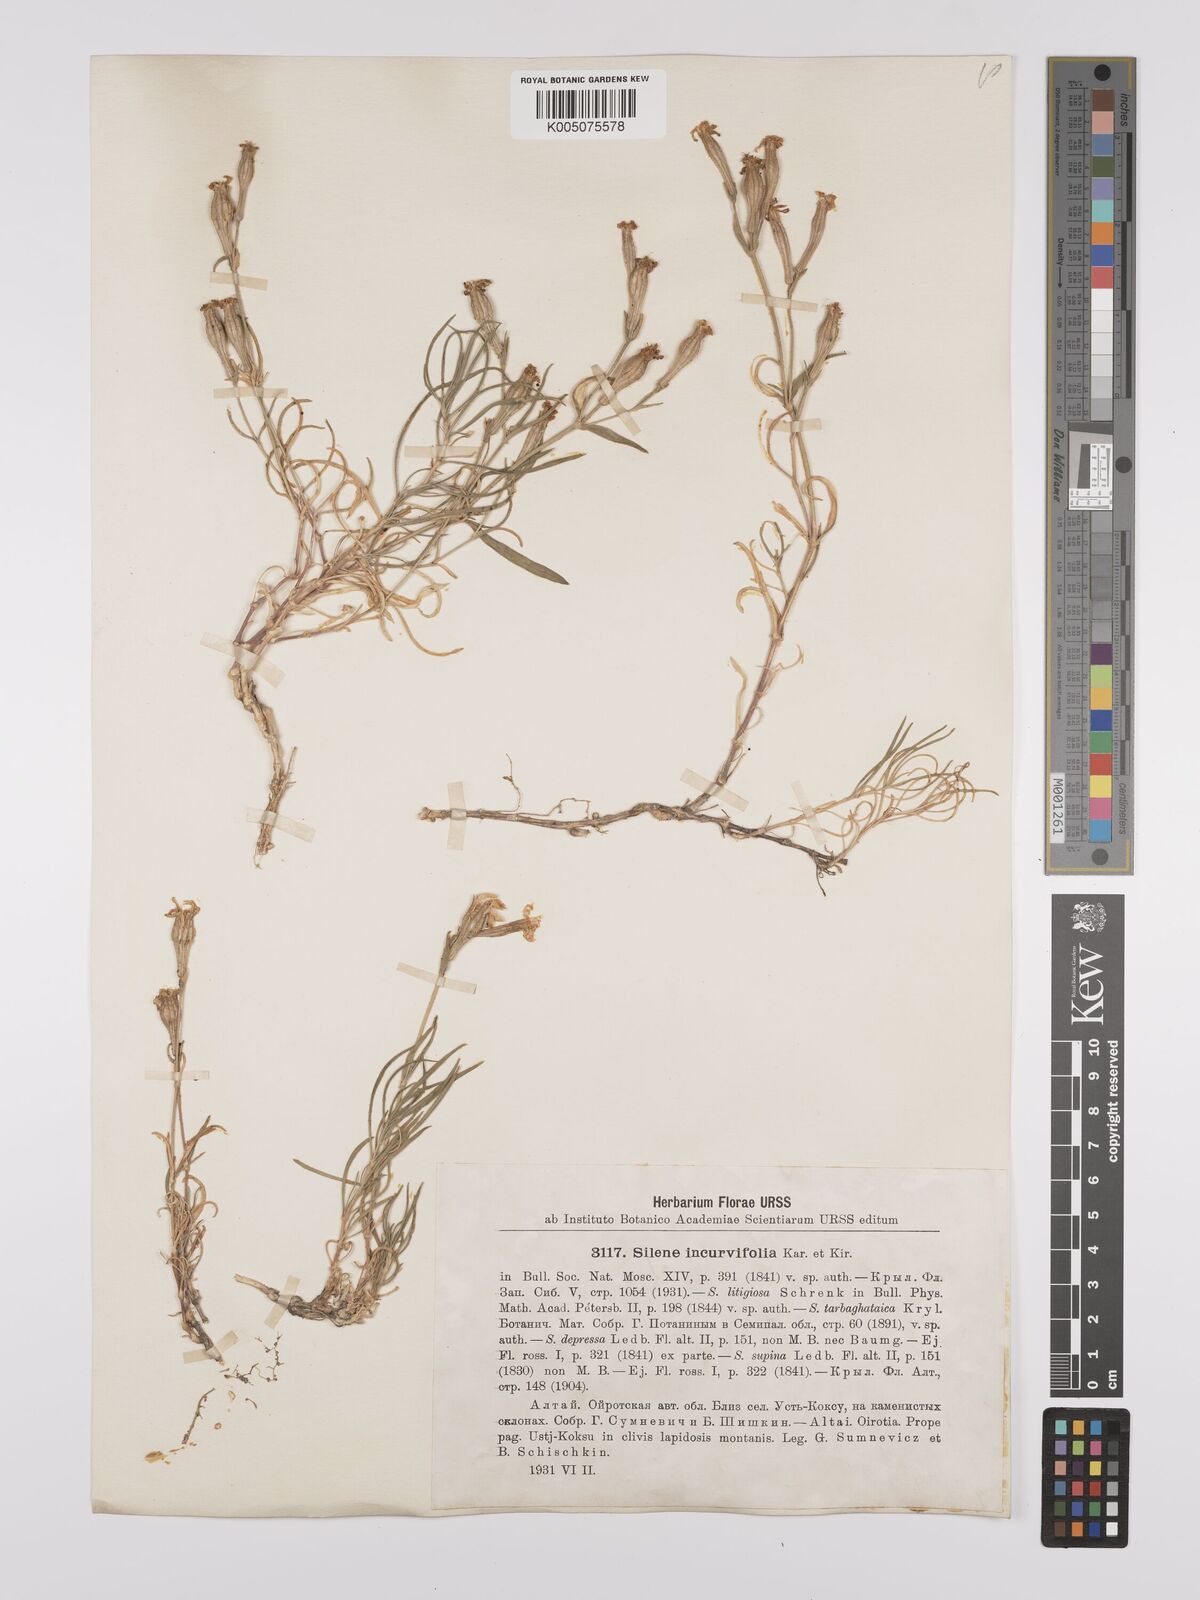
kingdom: Plantae
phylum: Tracheophyta
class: Magnoliopsida
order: Caryophyllales
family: Caryophyllaceae
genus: Silene
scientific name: Silene
